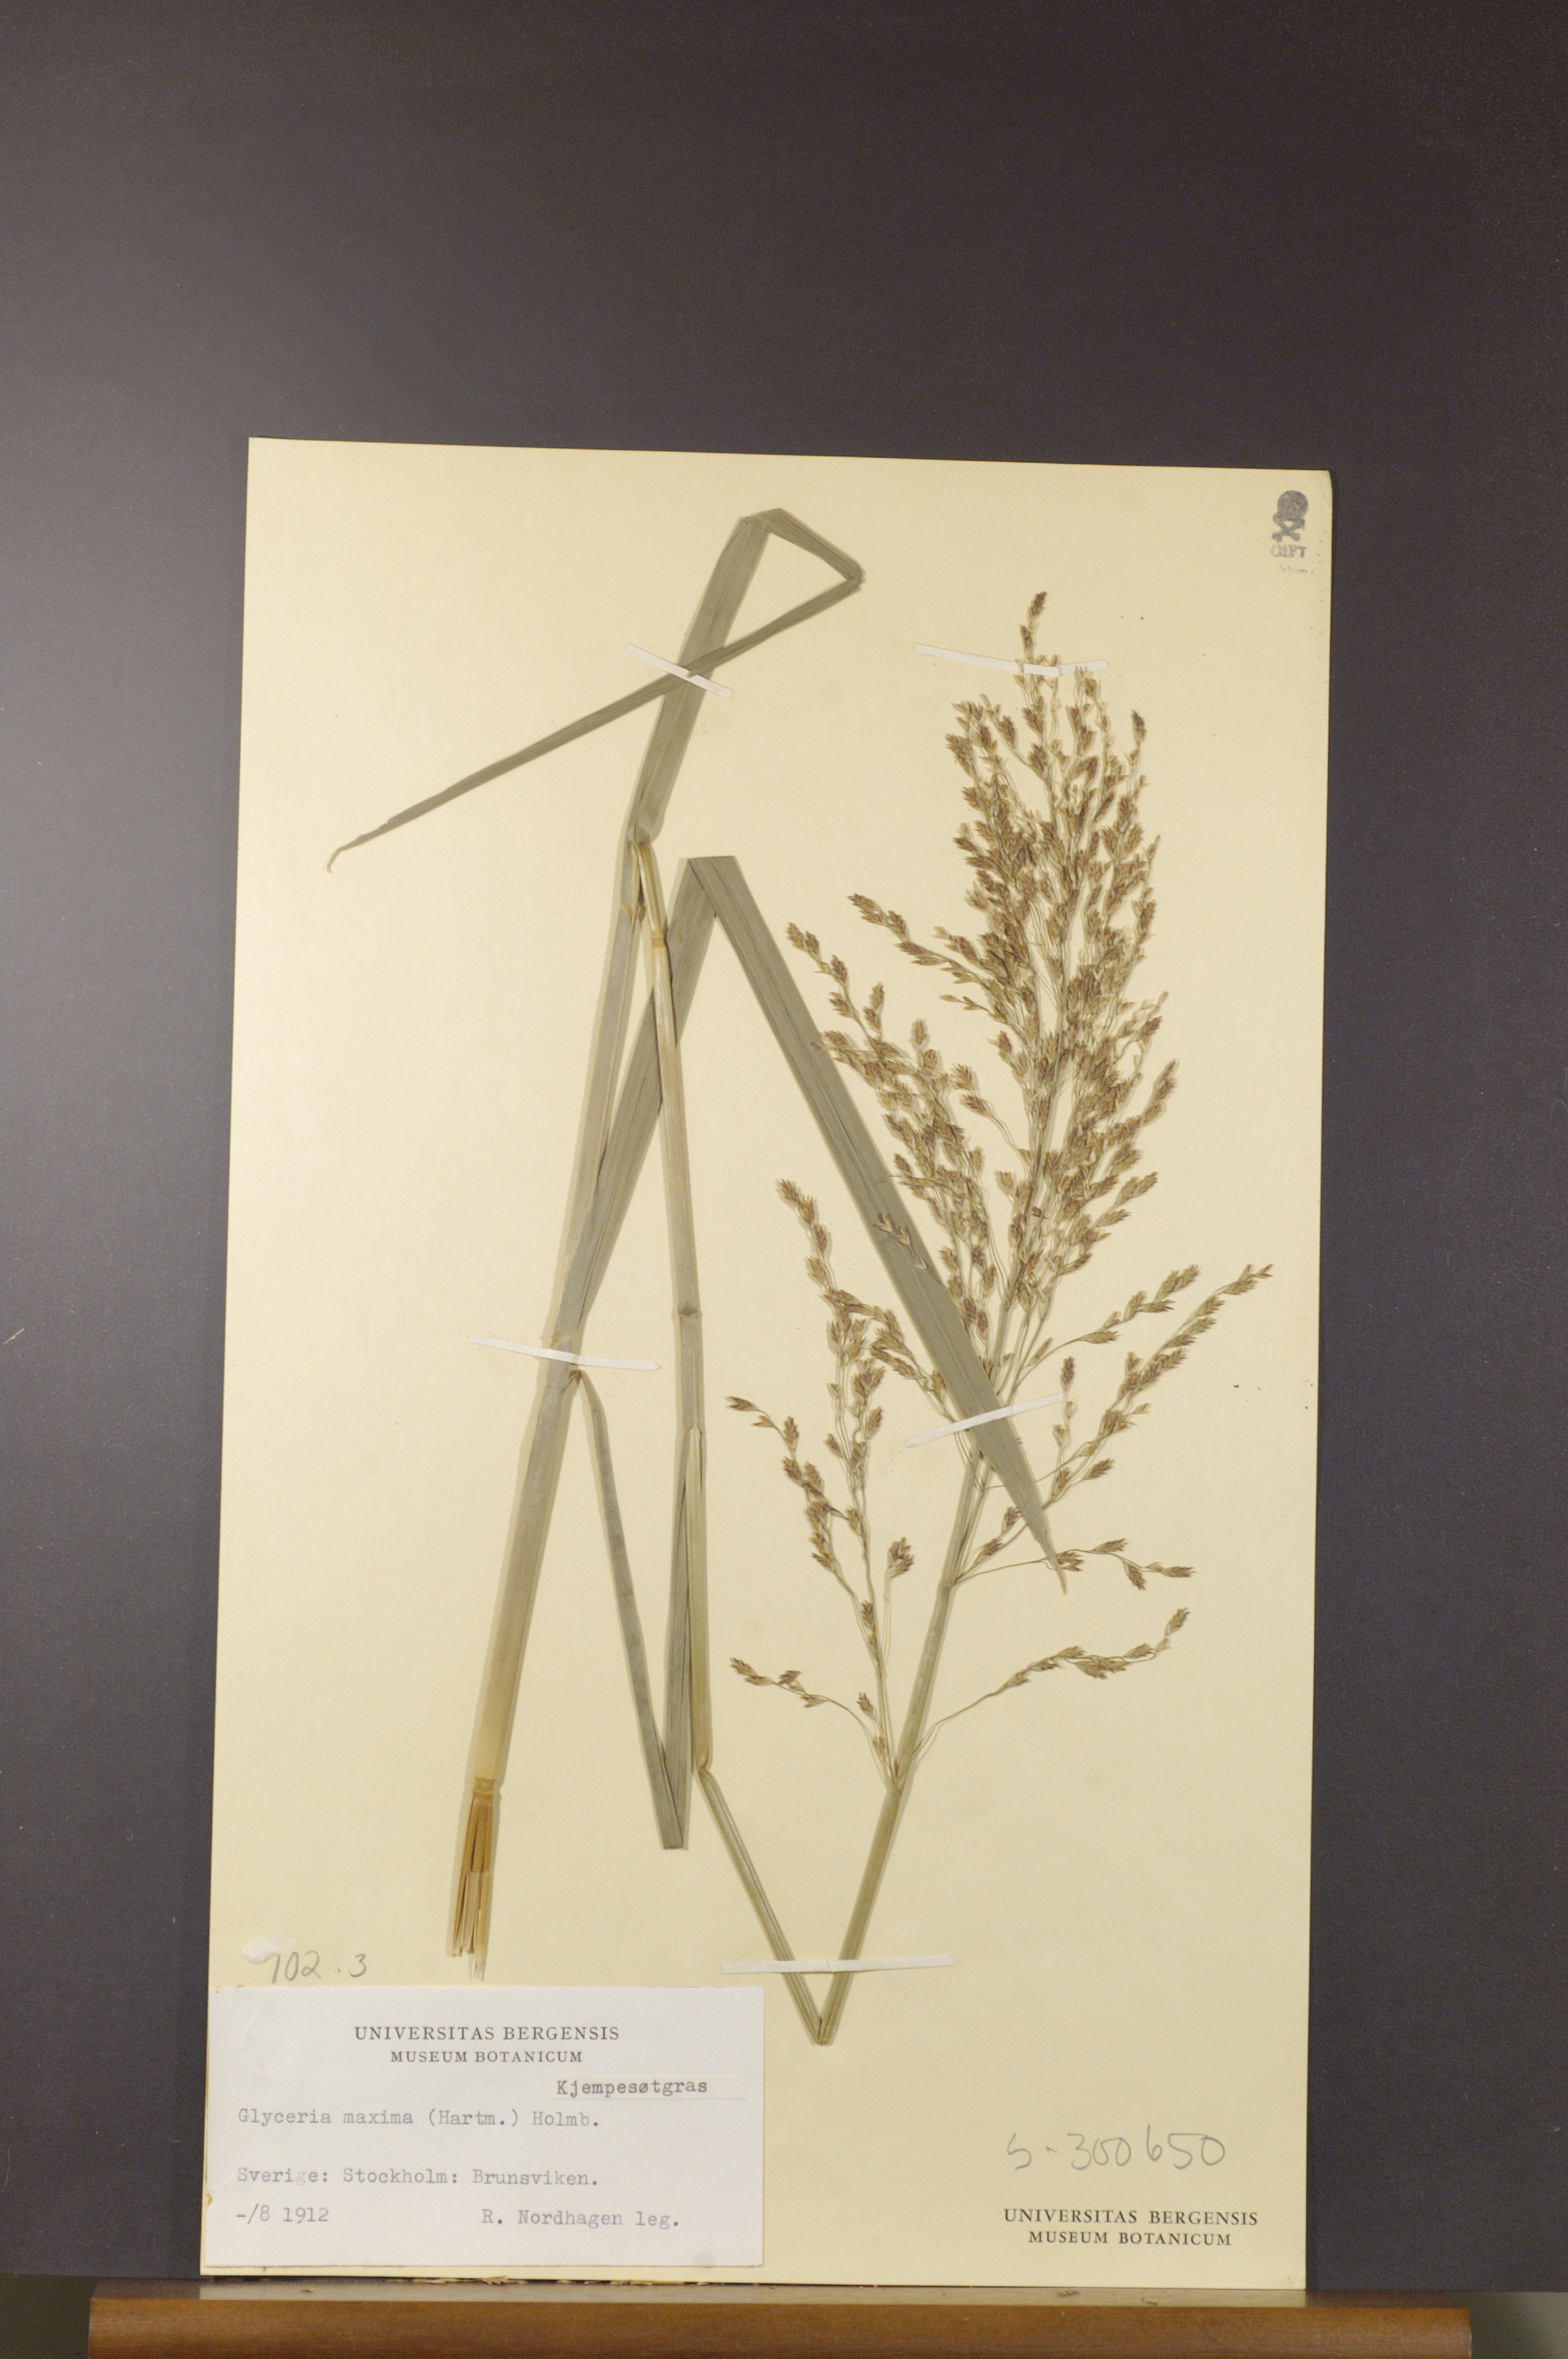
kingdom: Plantae
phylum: Tracheophyta
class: Liliopsida
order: Poales
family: Poaceae
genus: Glyceria
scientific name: Glyceria maxima
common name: Reed mannagrass
